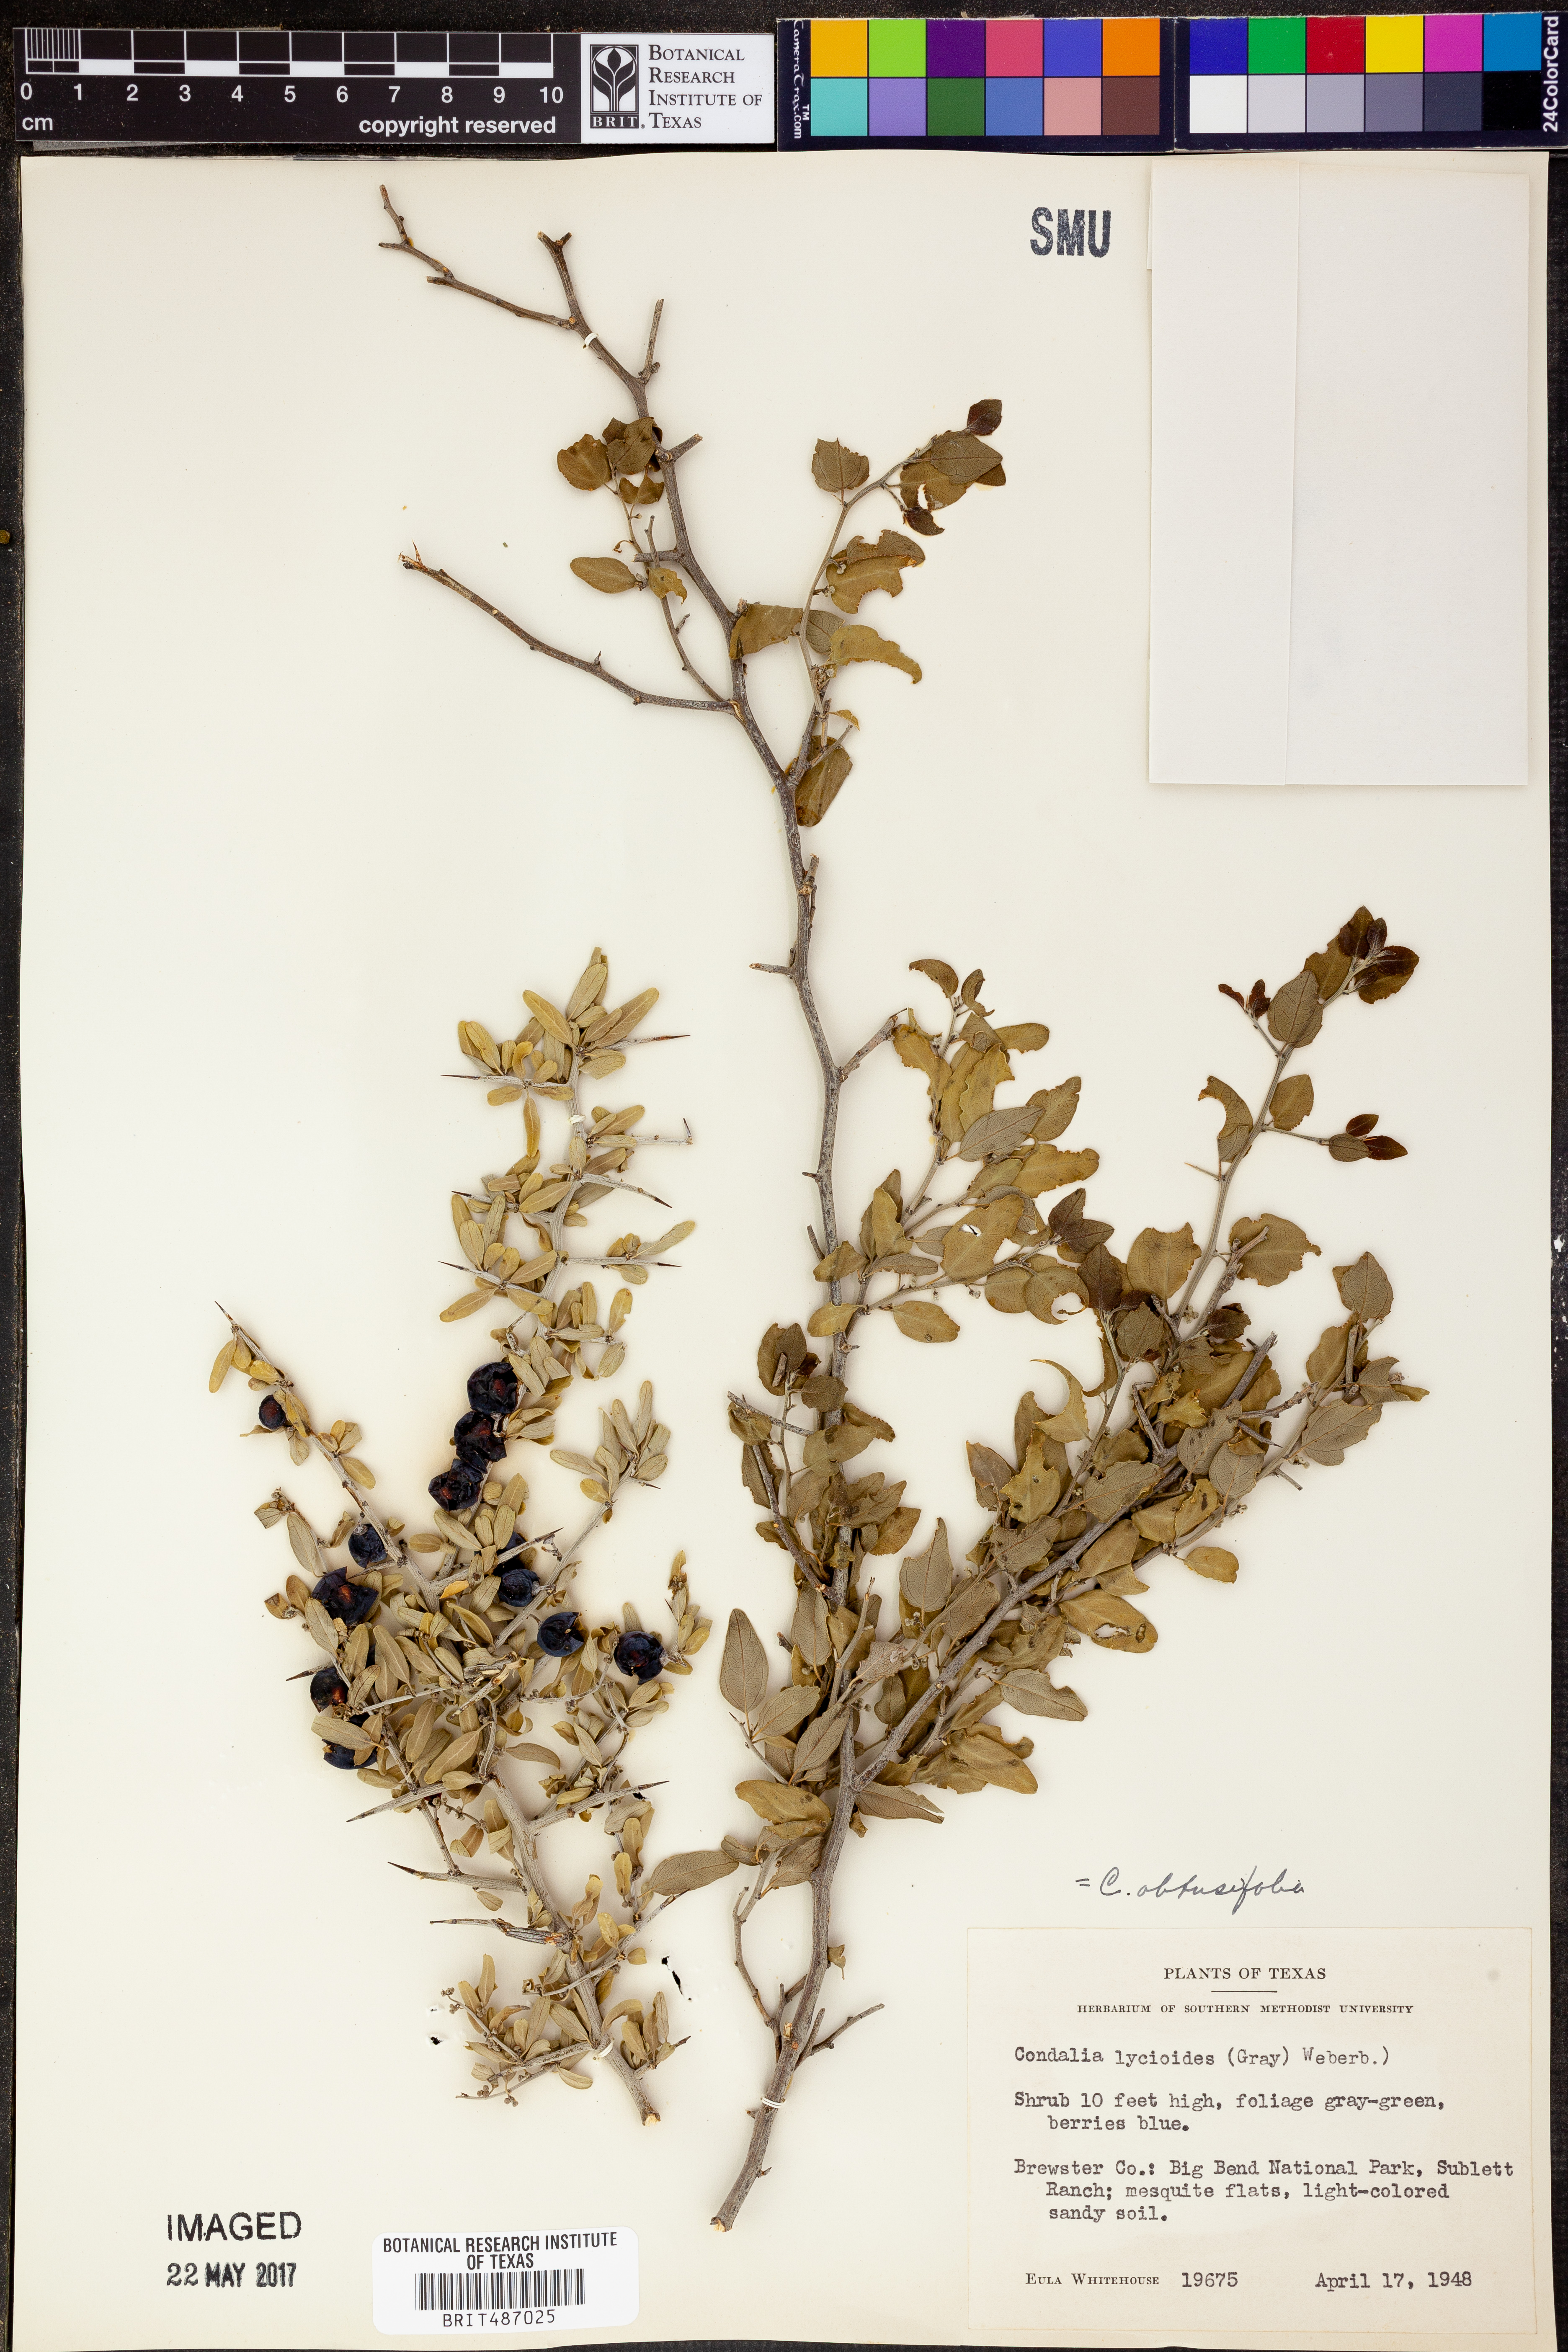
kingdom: Plantae
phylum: Tracheophyta
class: Magnoliopsida
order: Rosales
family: Rhamnaceae
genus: Sarcomphalus
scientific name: Sarcomphalus obtusifolius
